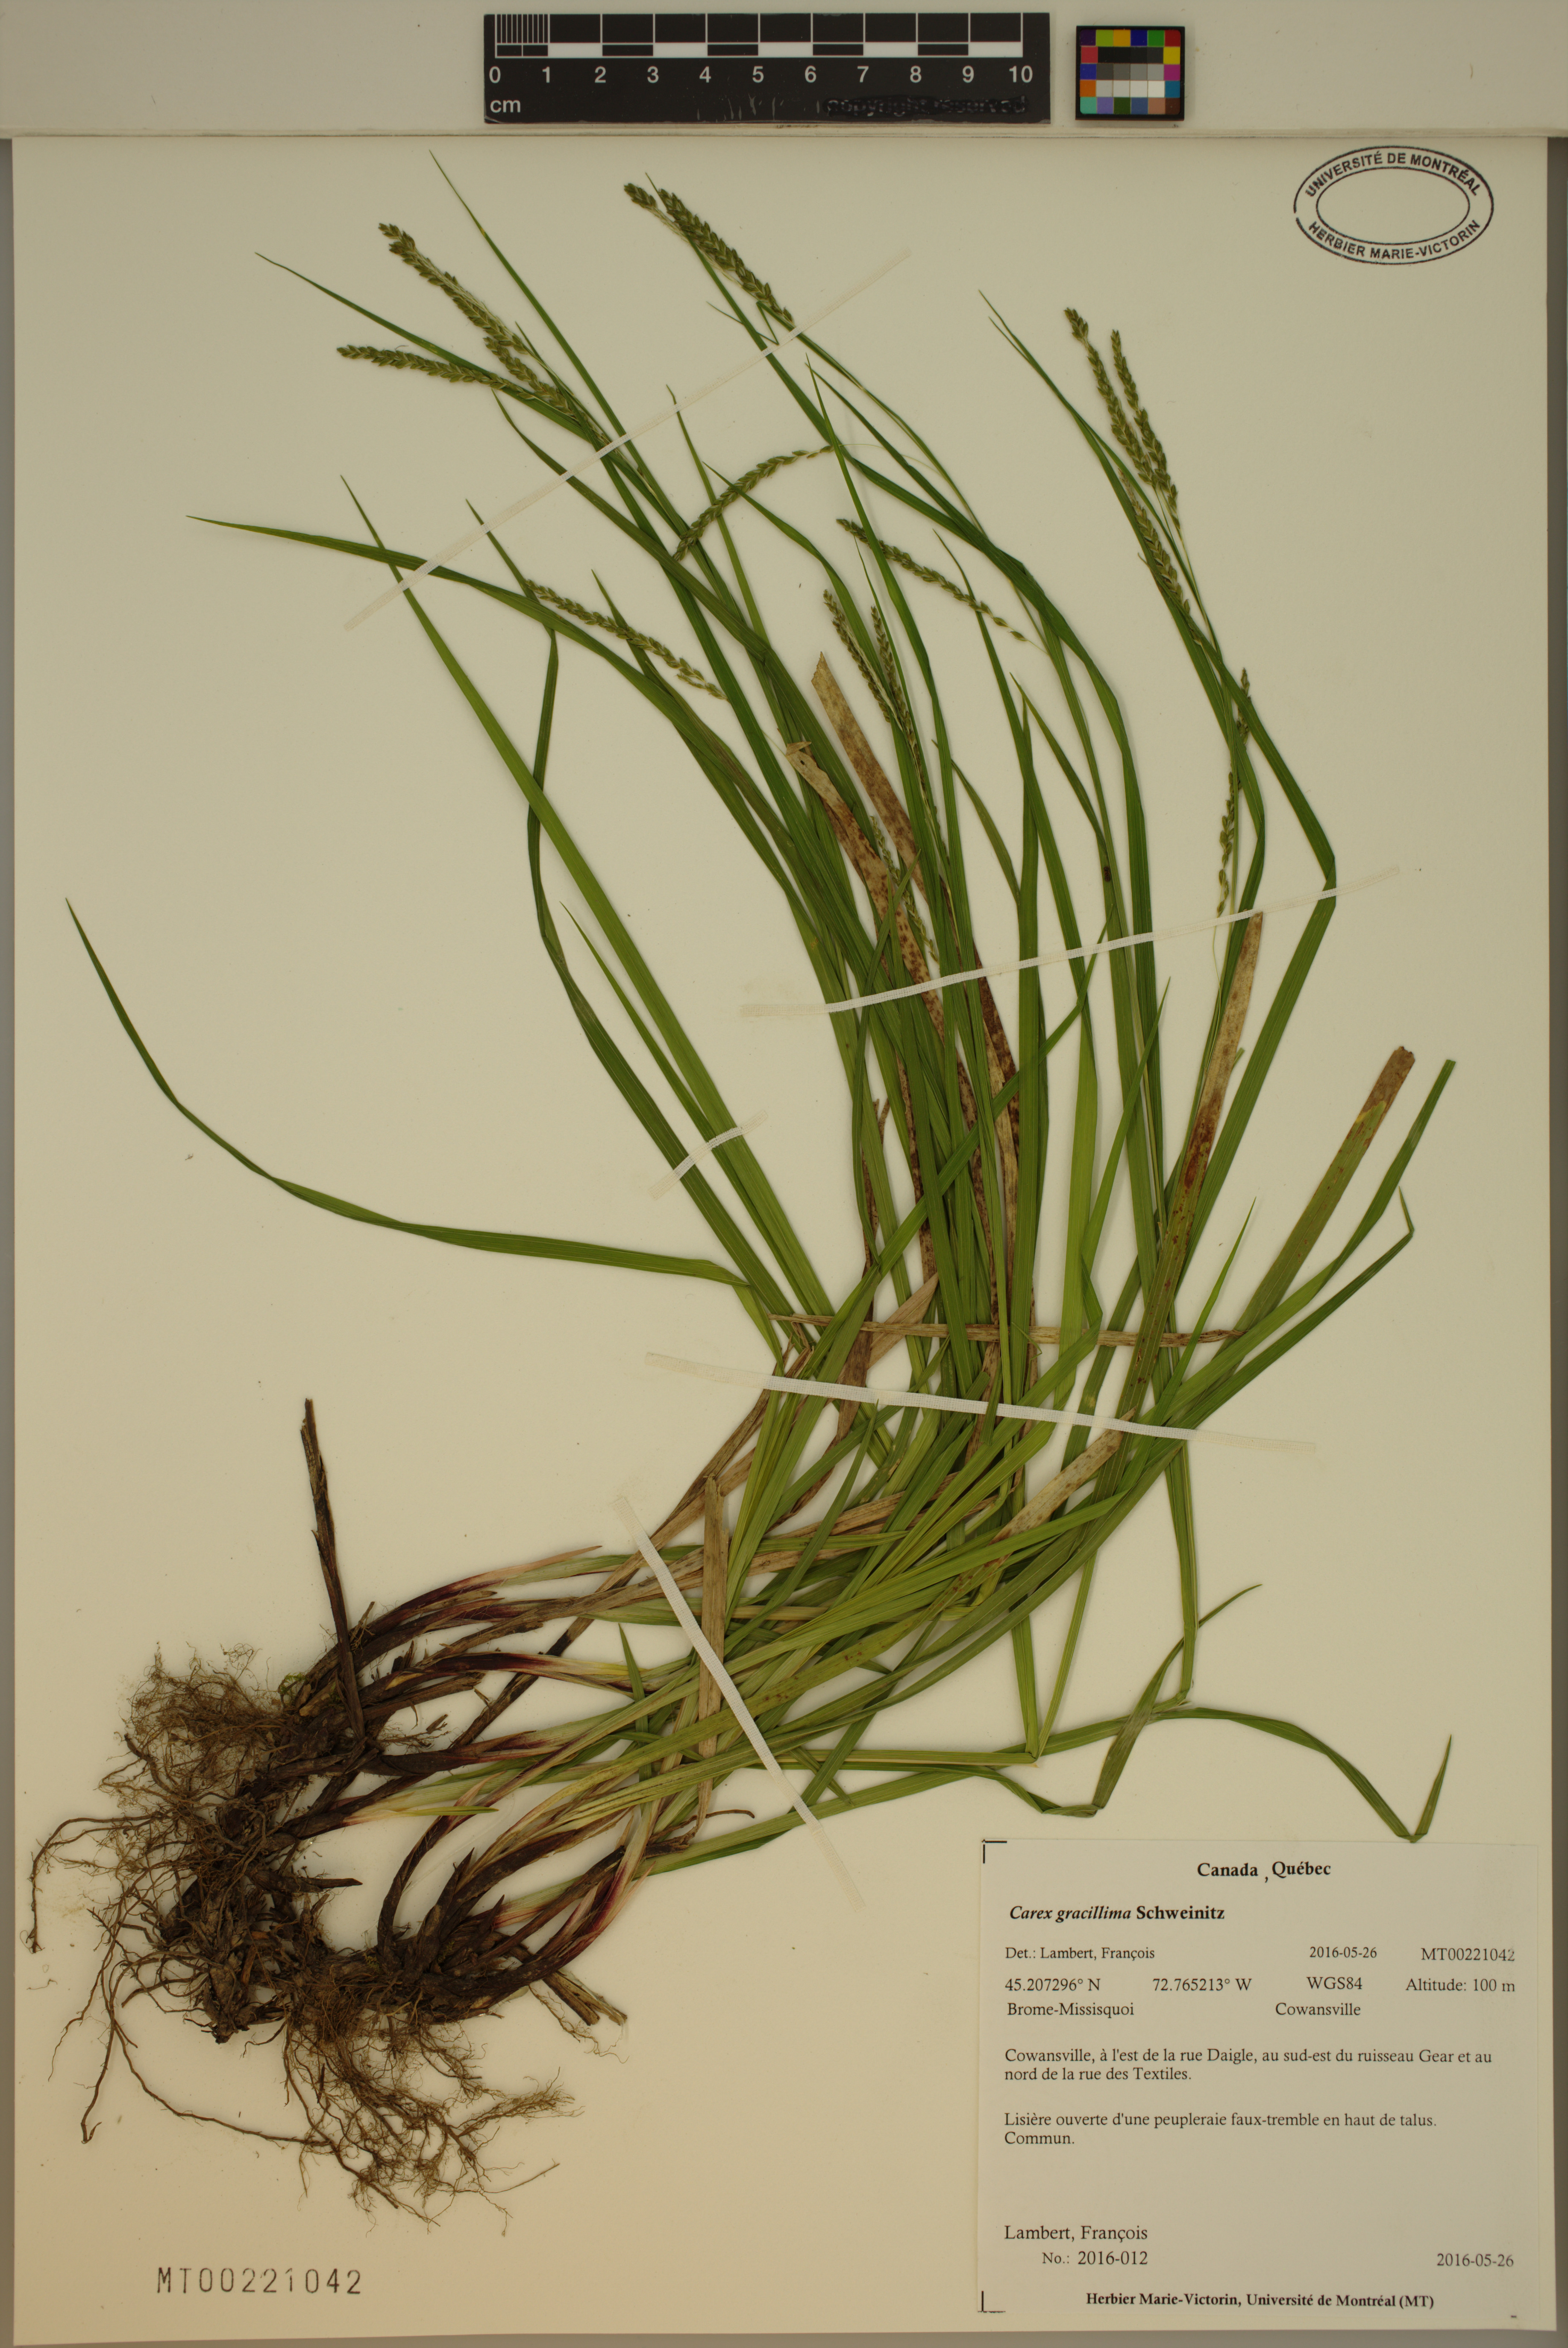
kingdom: Plantae
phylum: Tracheophyta
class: Liliopsida
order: Poales
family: Cyperaceae
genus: Carex
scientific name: Carex gracillima
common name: Graceful sedge
